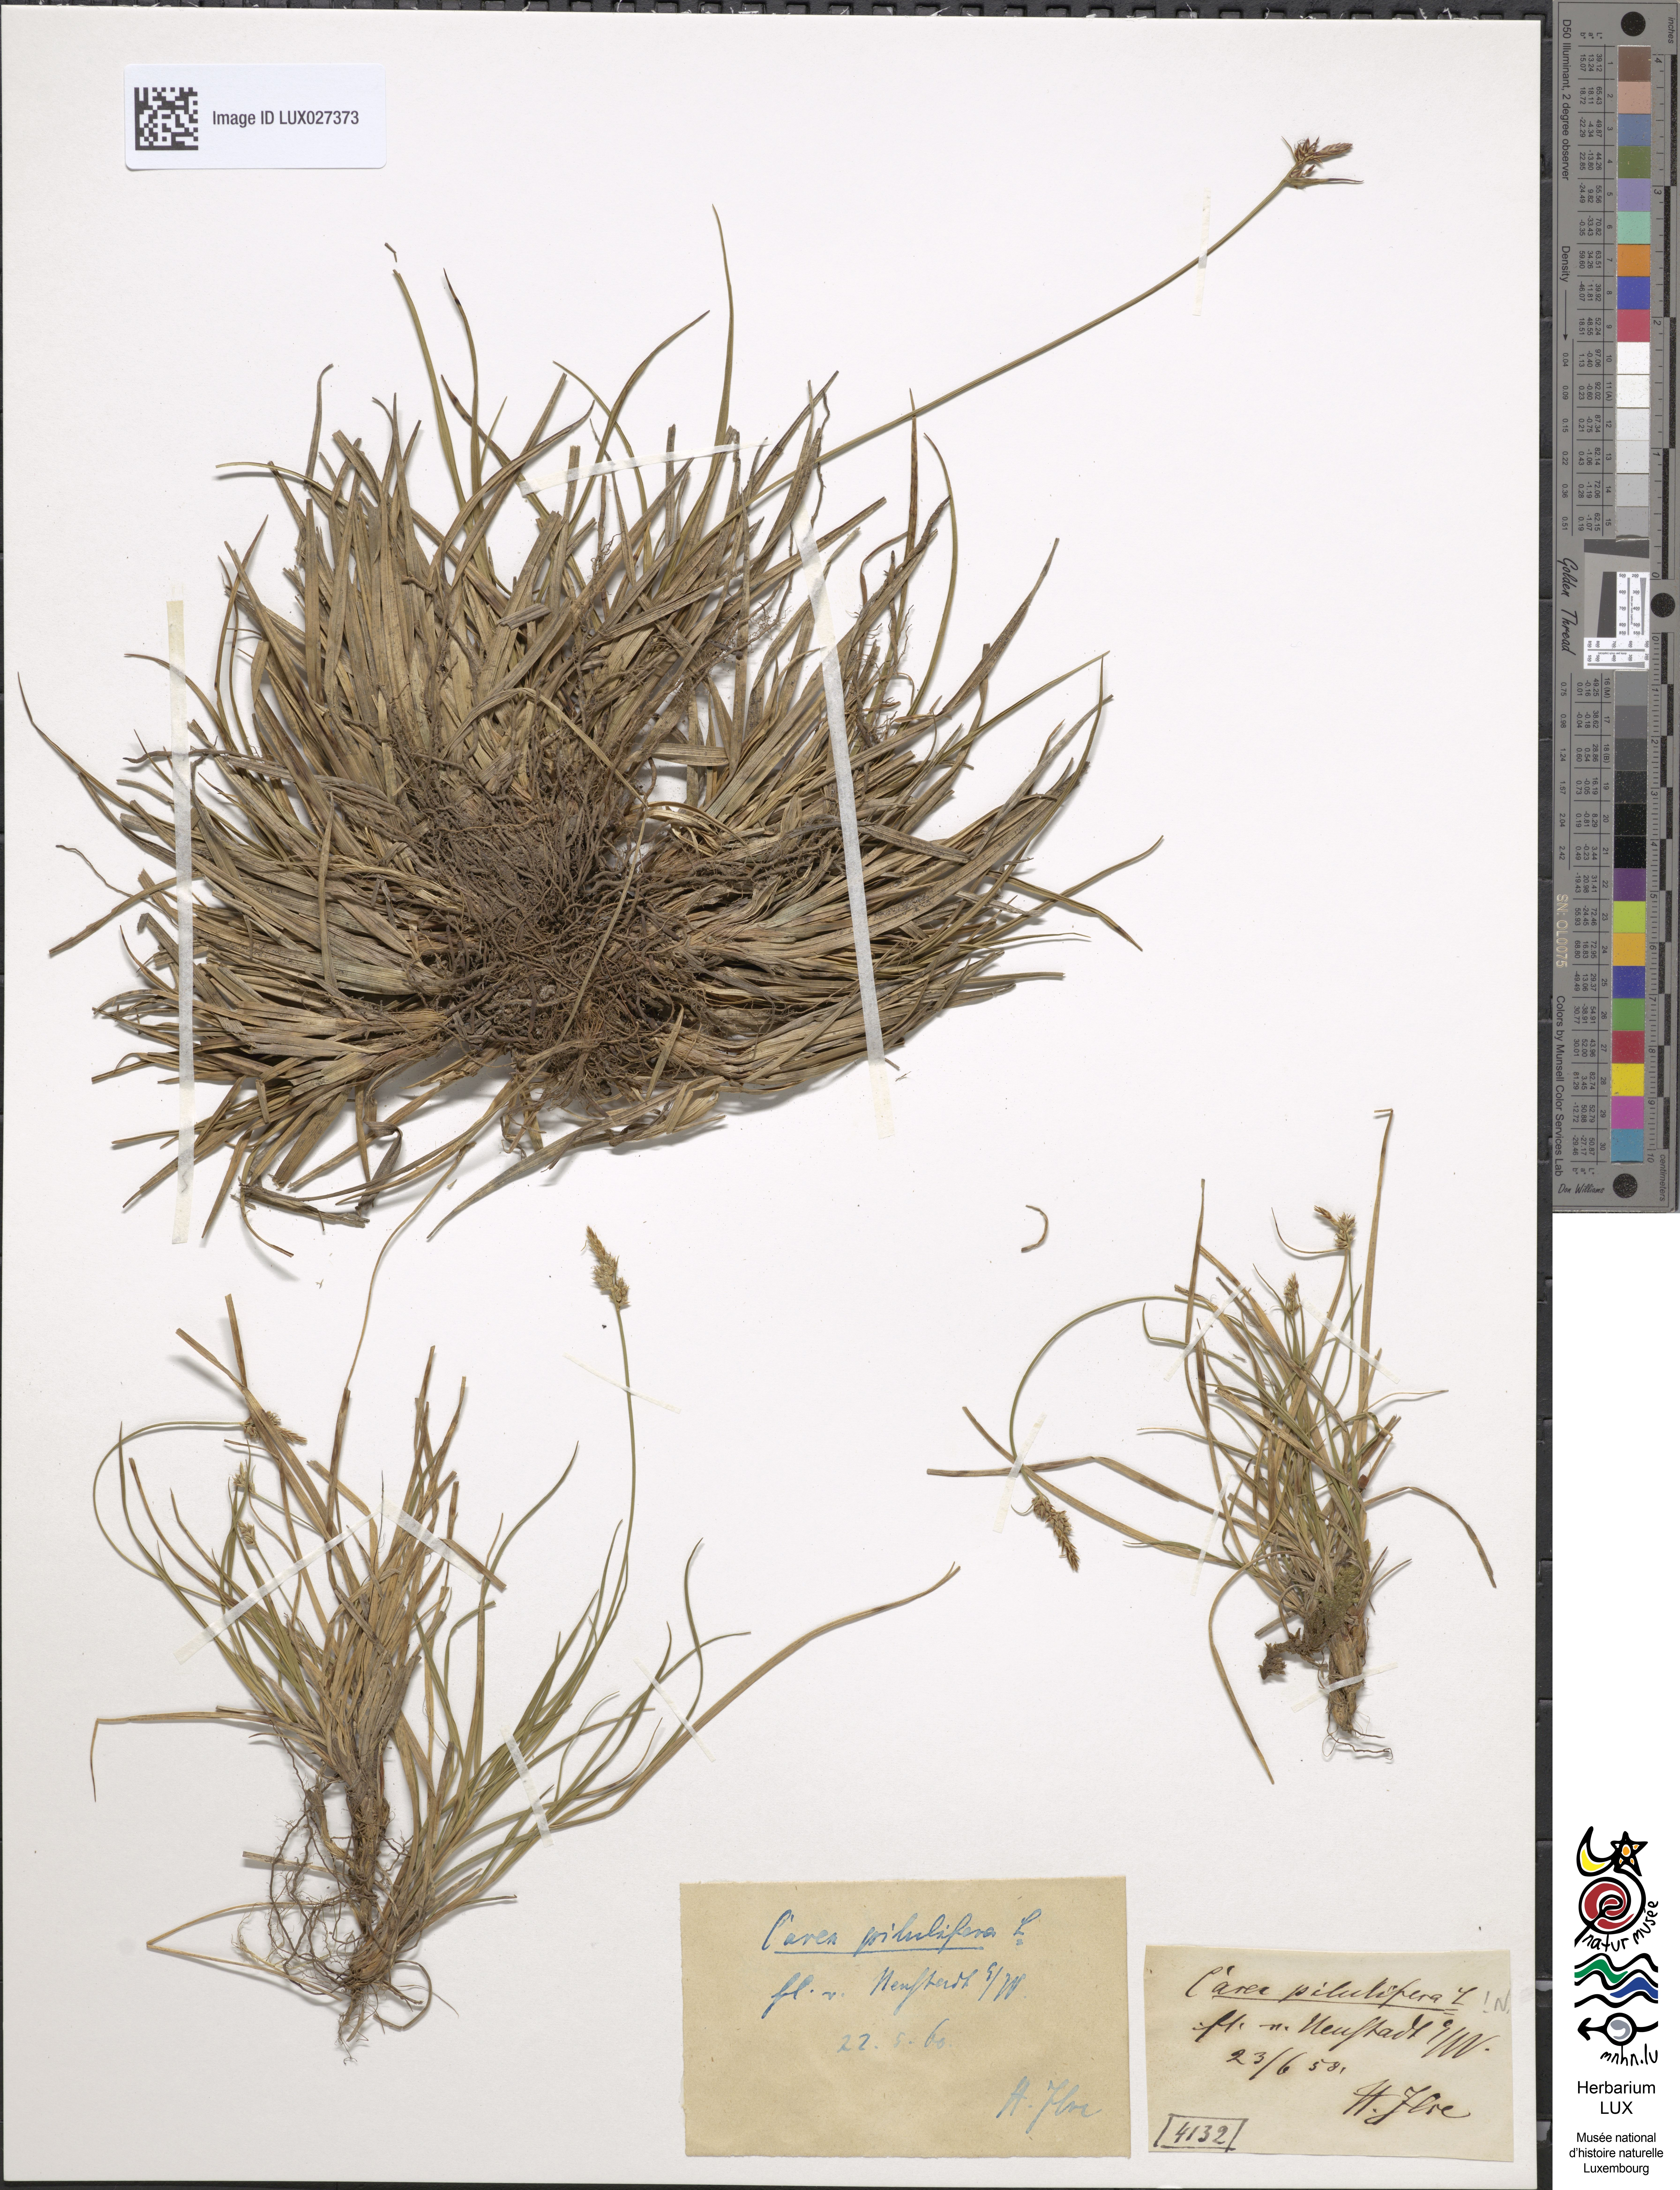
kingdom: Plantae
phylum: Tracheophyta
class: Liliopsida
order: Poales
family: Cyperaceae
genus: Carex
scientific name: Carex pilulifera
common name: Pill sedge
